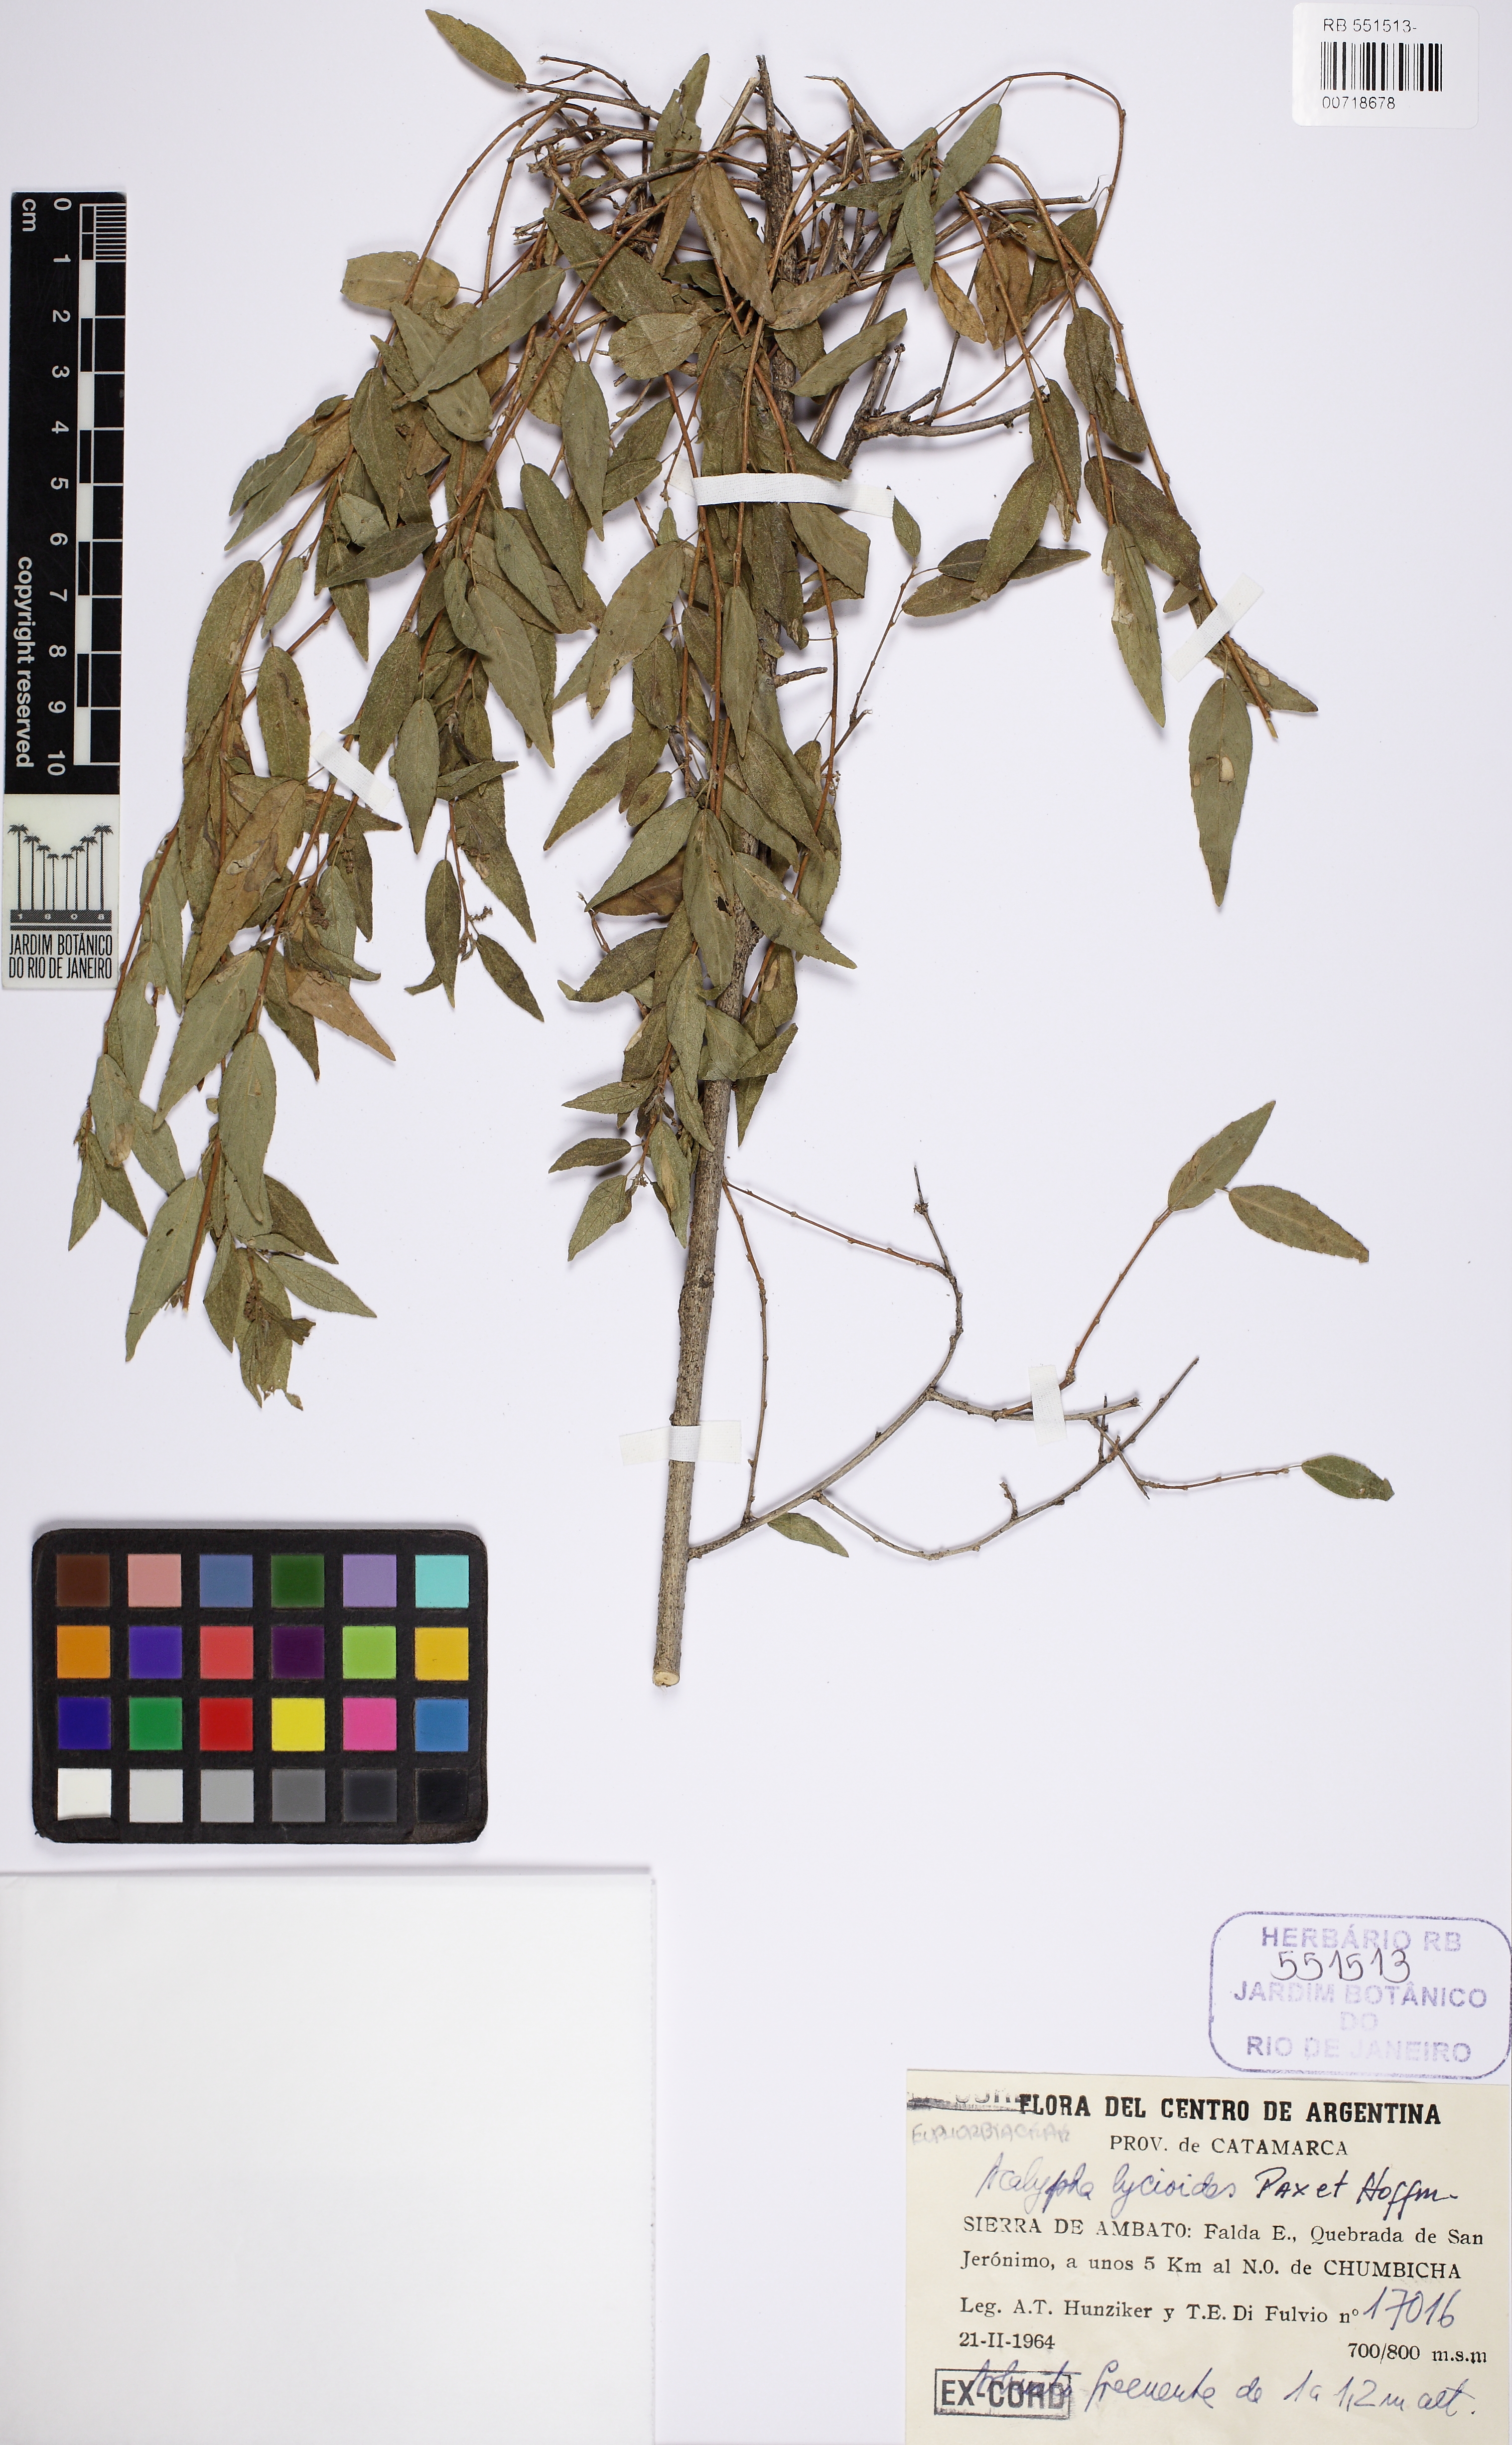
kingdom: Plantae
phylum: Tracheophyta
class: Magnoliopsida
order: Malpighiales
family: Euphorbiaceae
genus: Acalypha
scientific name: Acalypha lycioides
